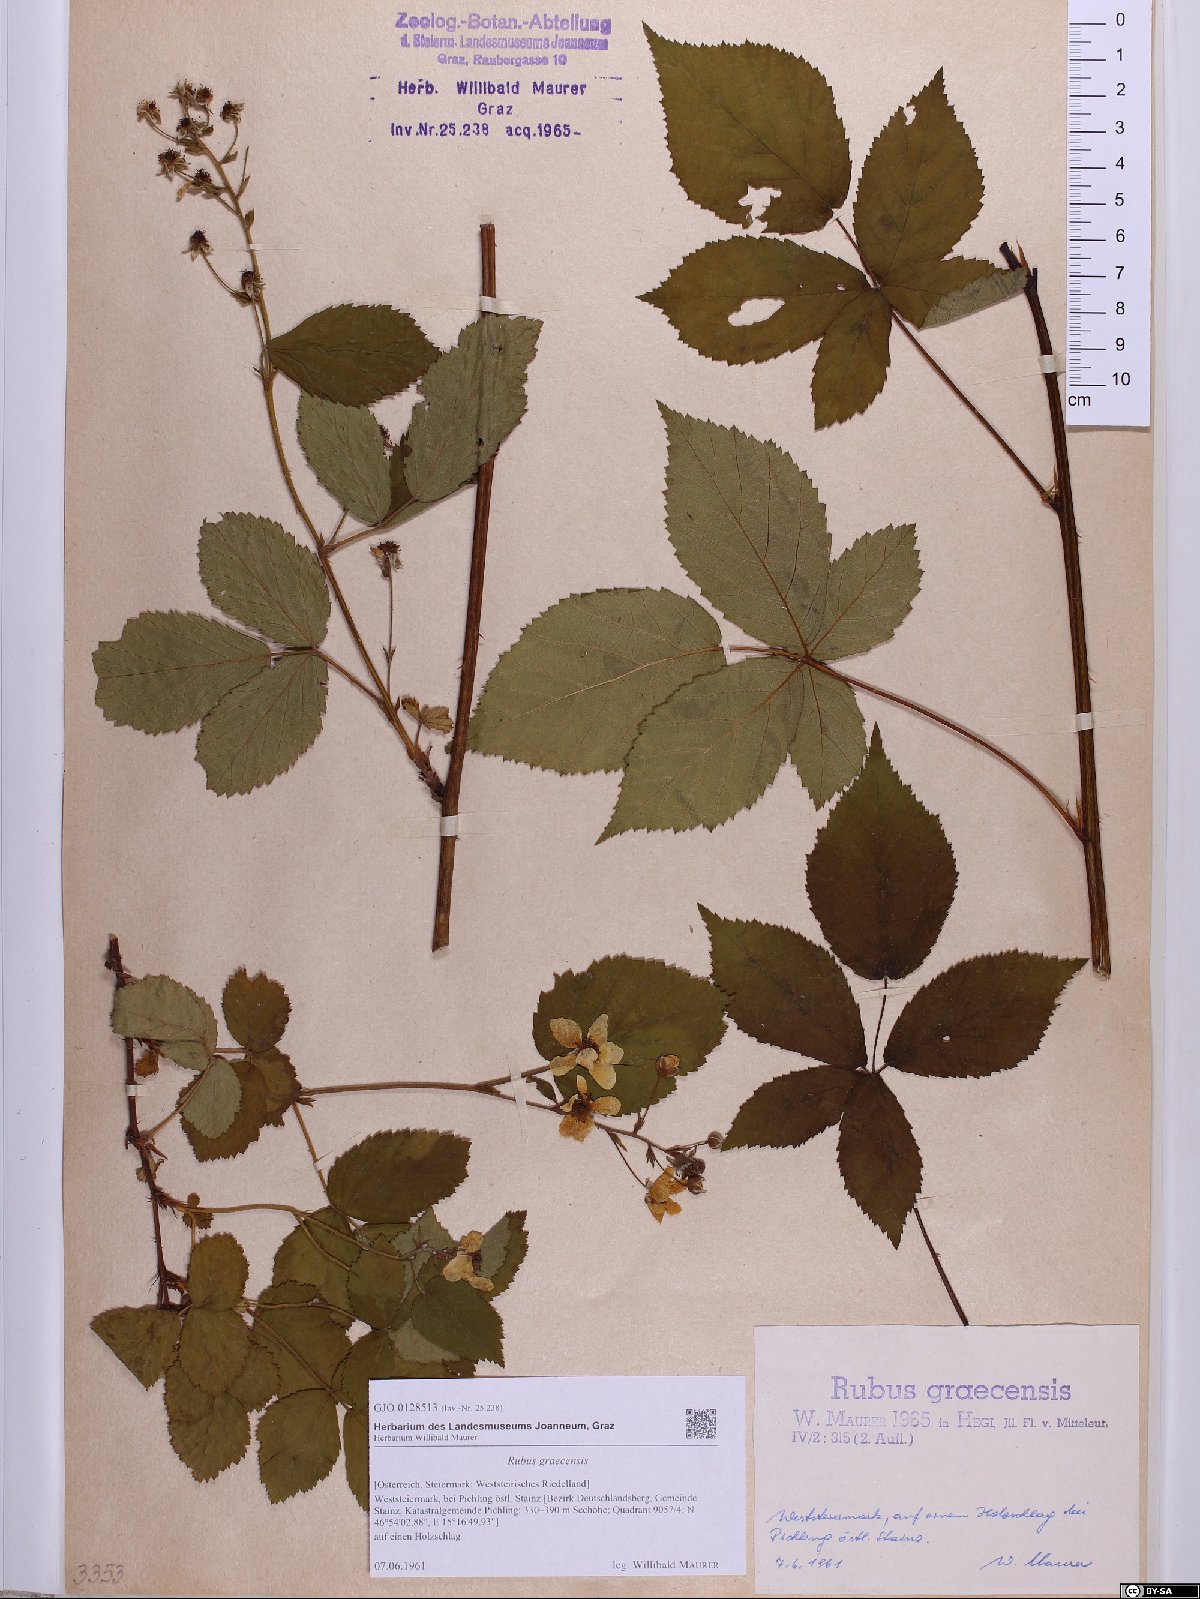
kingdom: Plantae
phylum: Tracheophyta
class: Magnoliopsida
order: Rosales
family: Rosaceae
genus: Rubus
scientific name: Rubus graecensis
